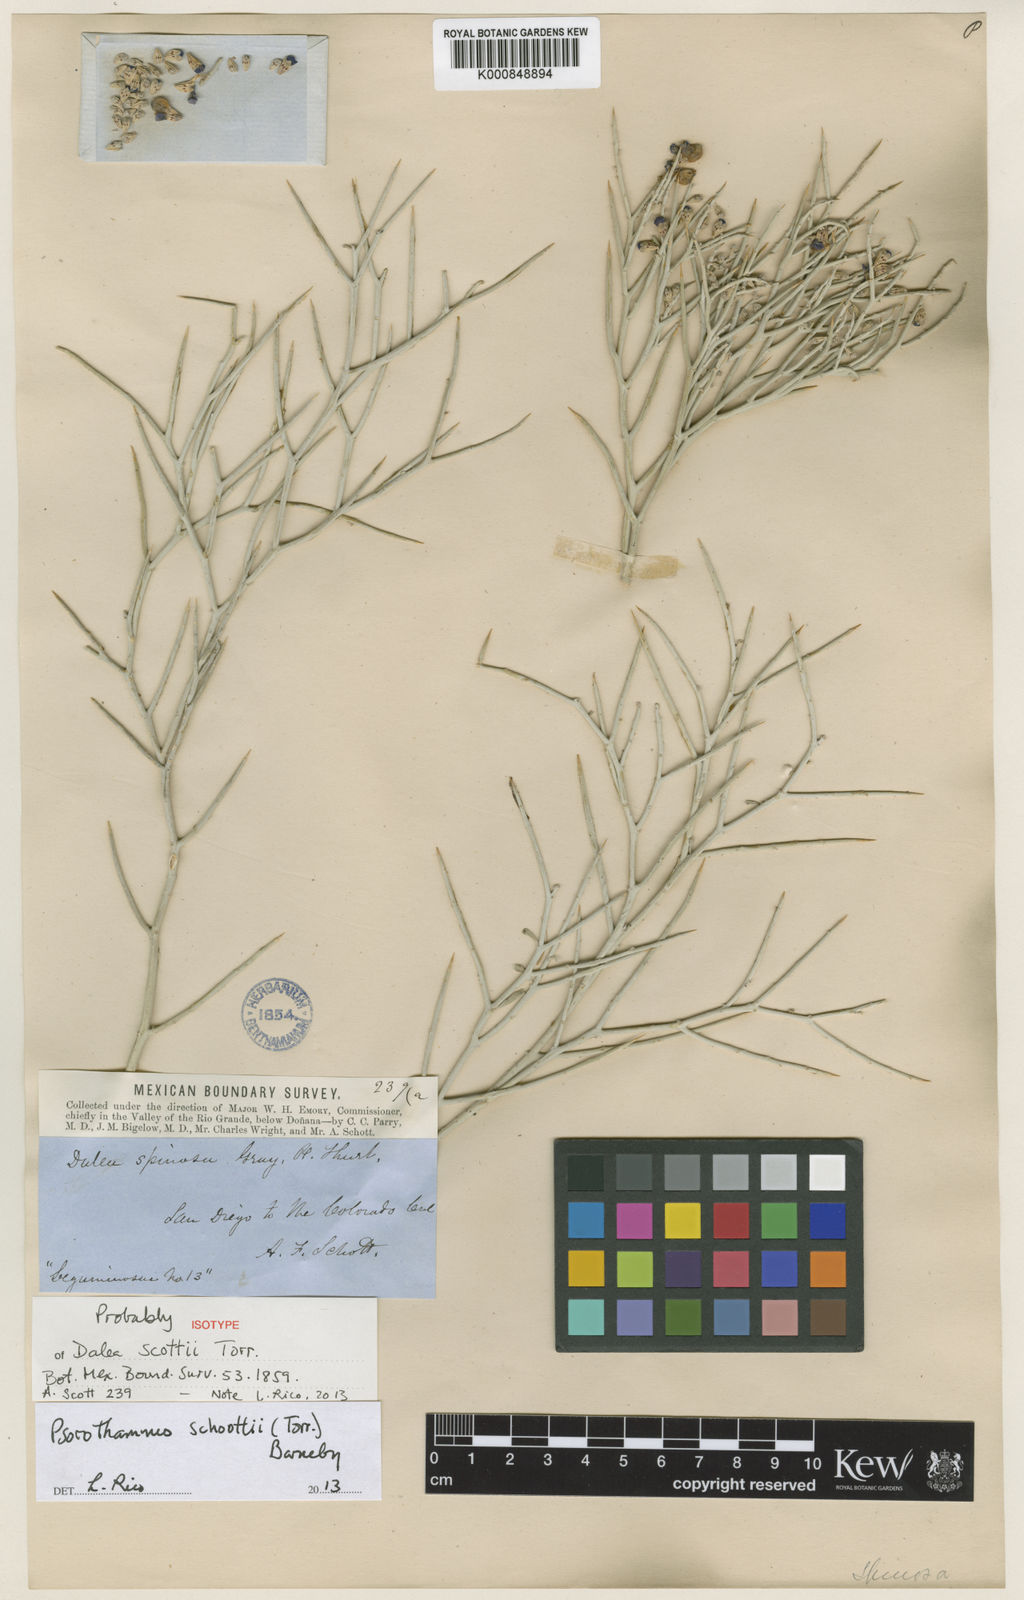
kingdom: Plantae
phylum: Tracheophyta
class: Magnoliopsida
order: Fabales
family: Fabaceae
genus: Psorothamnus
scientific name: Psorothamnus spinosus
